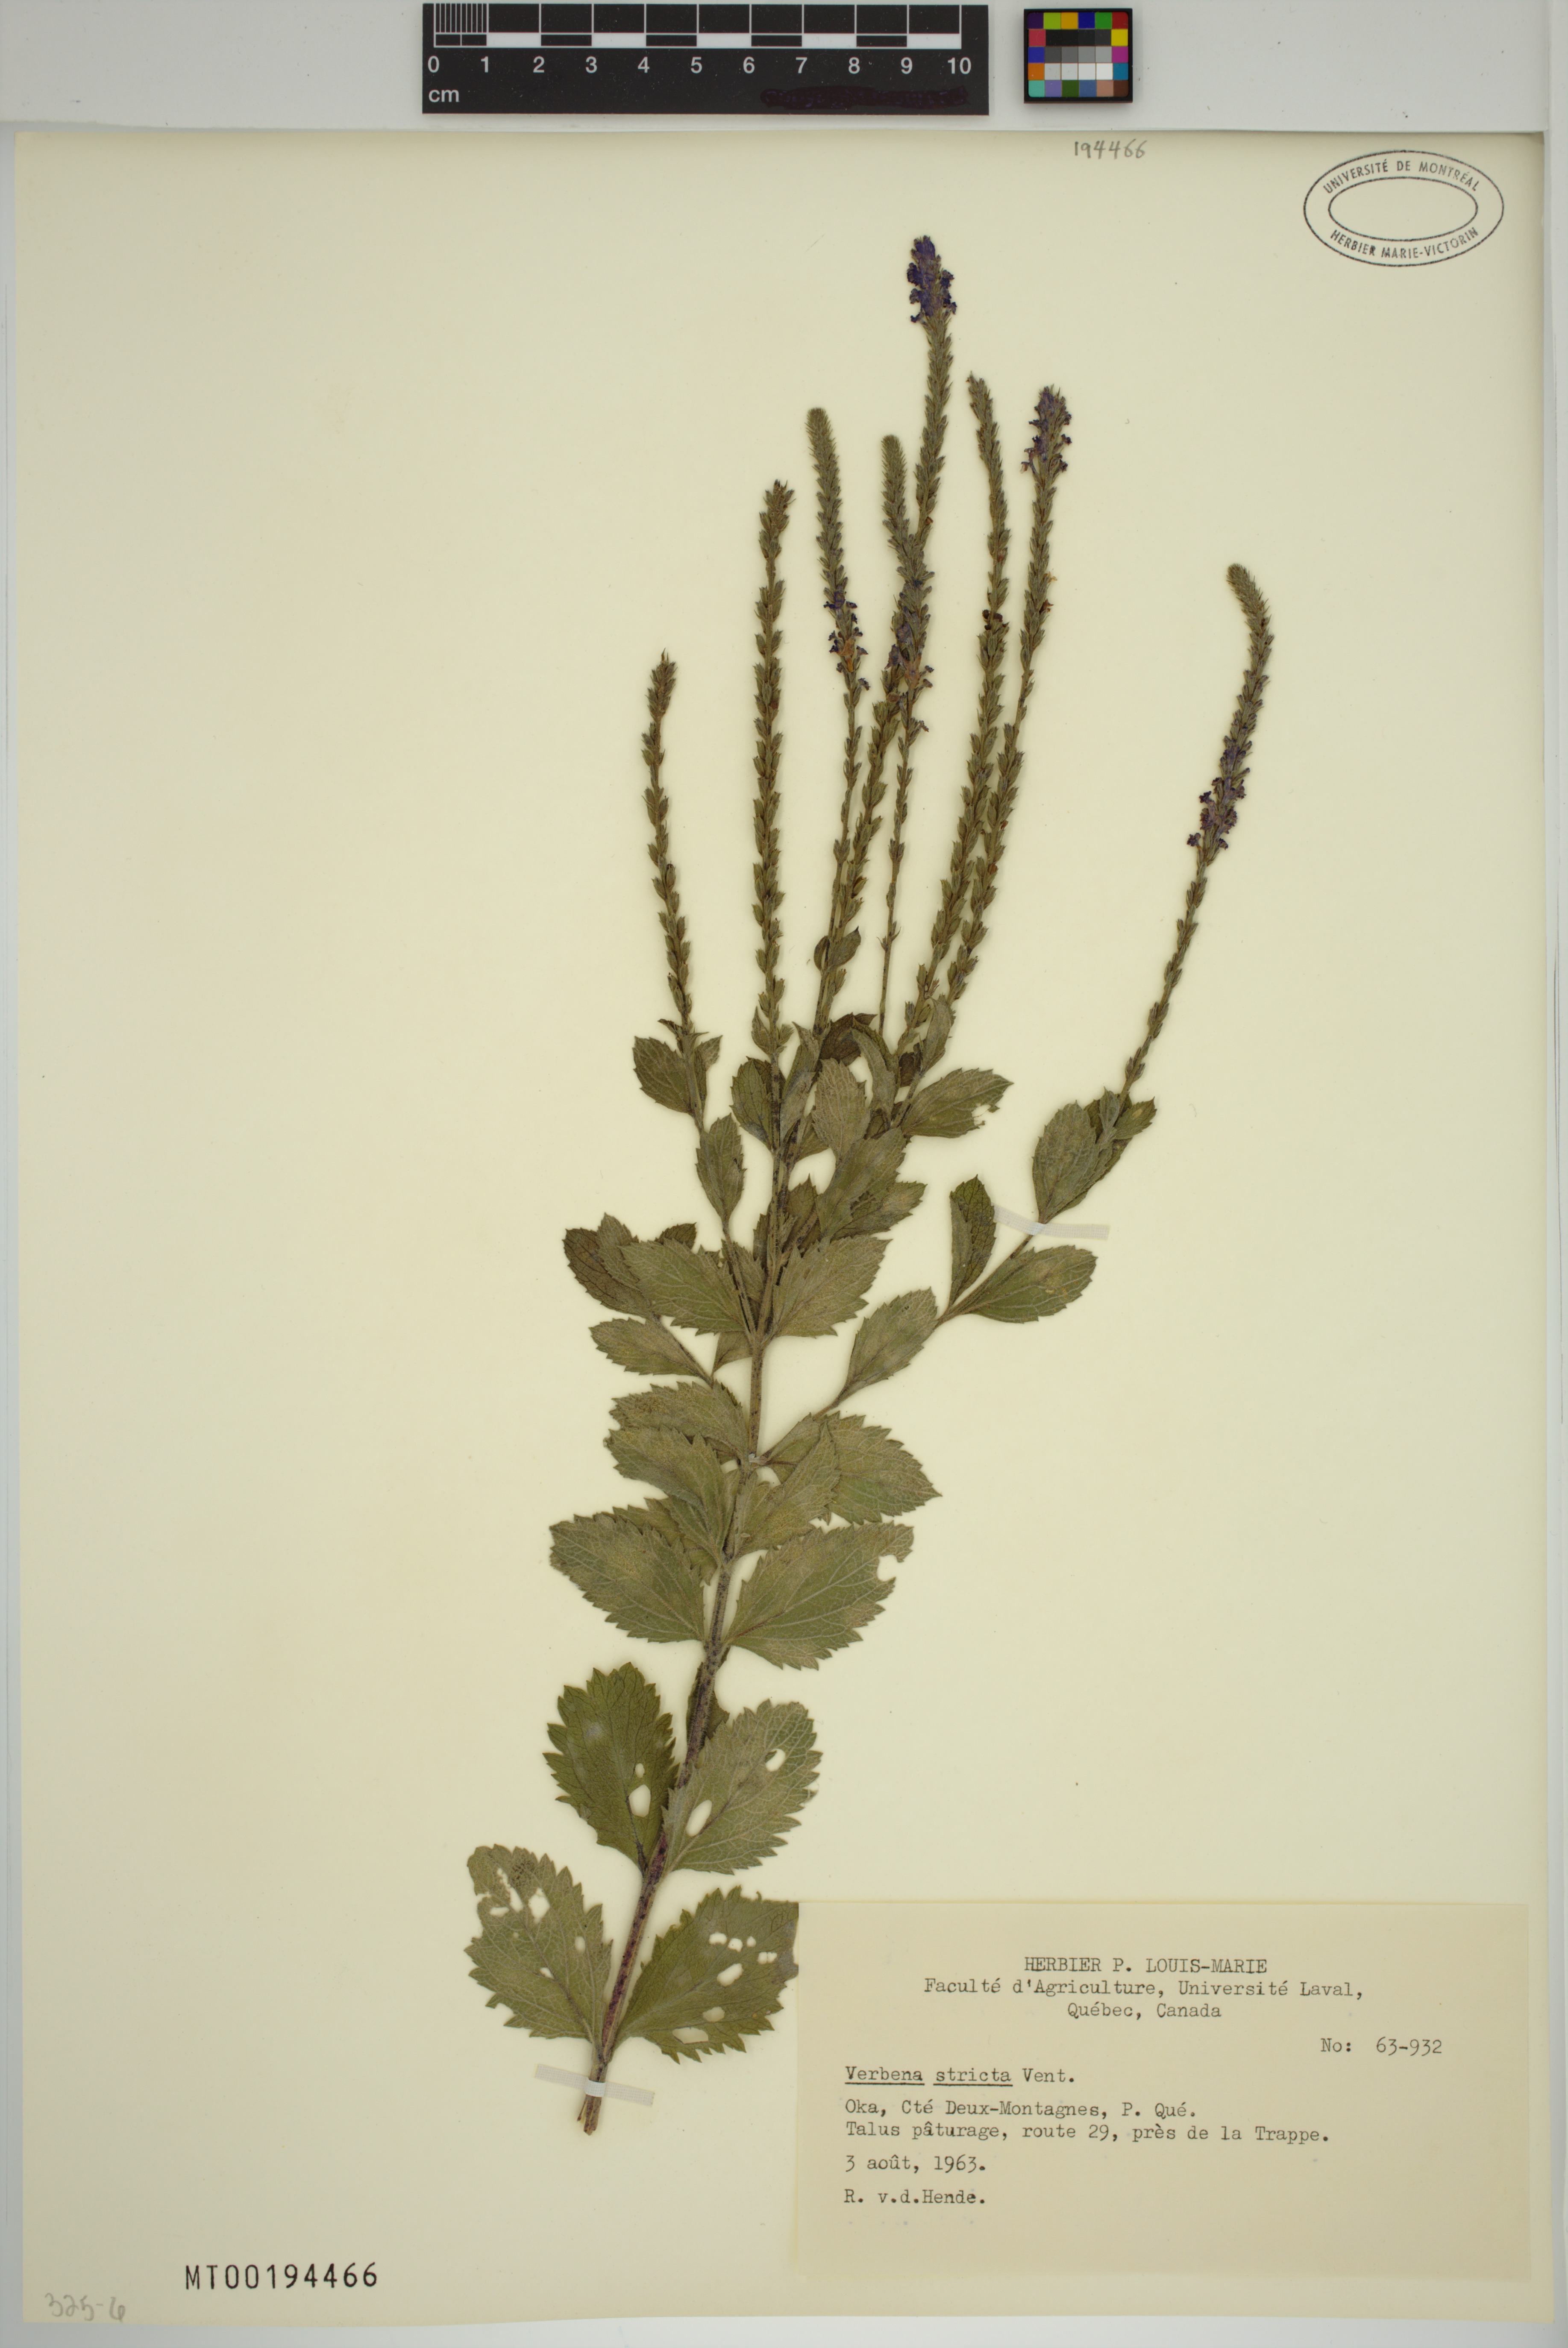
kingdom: Plantae
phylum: Tracheophyta
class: Magnoliopsida
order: Lamiales
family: Verbenaceae
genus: Verbena
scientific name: Verbena stricta
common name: Hoary vervain
